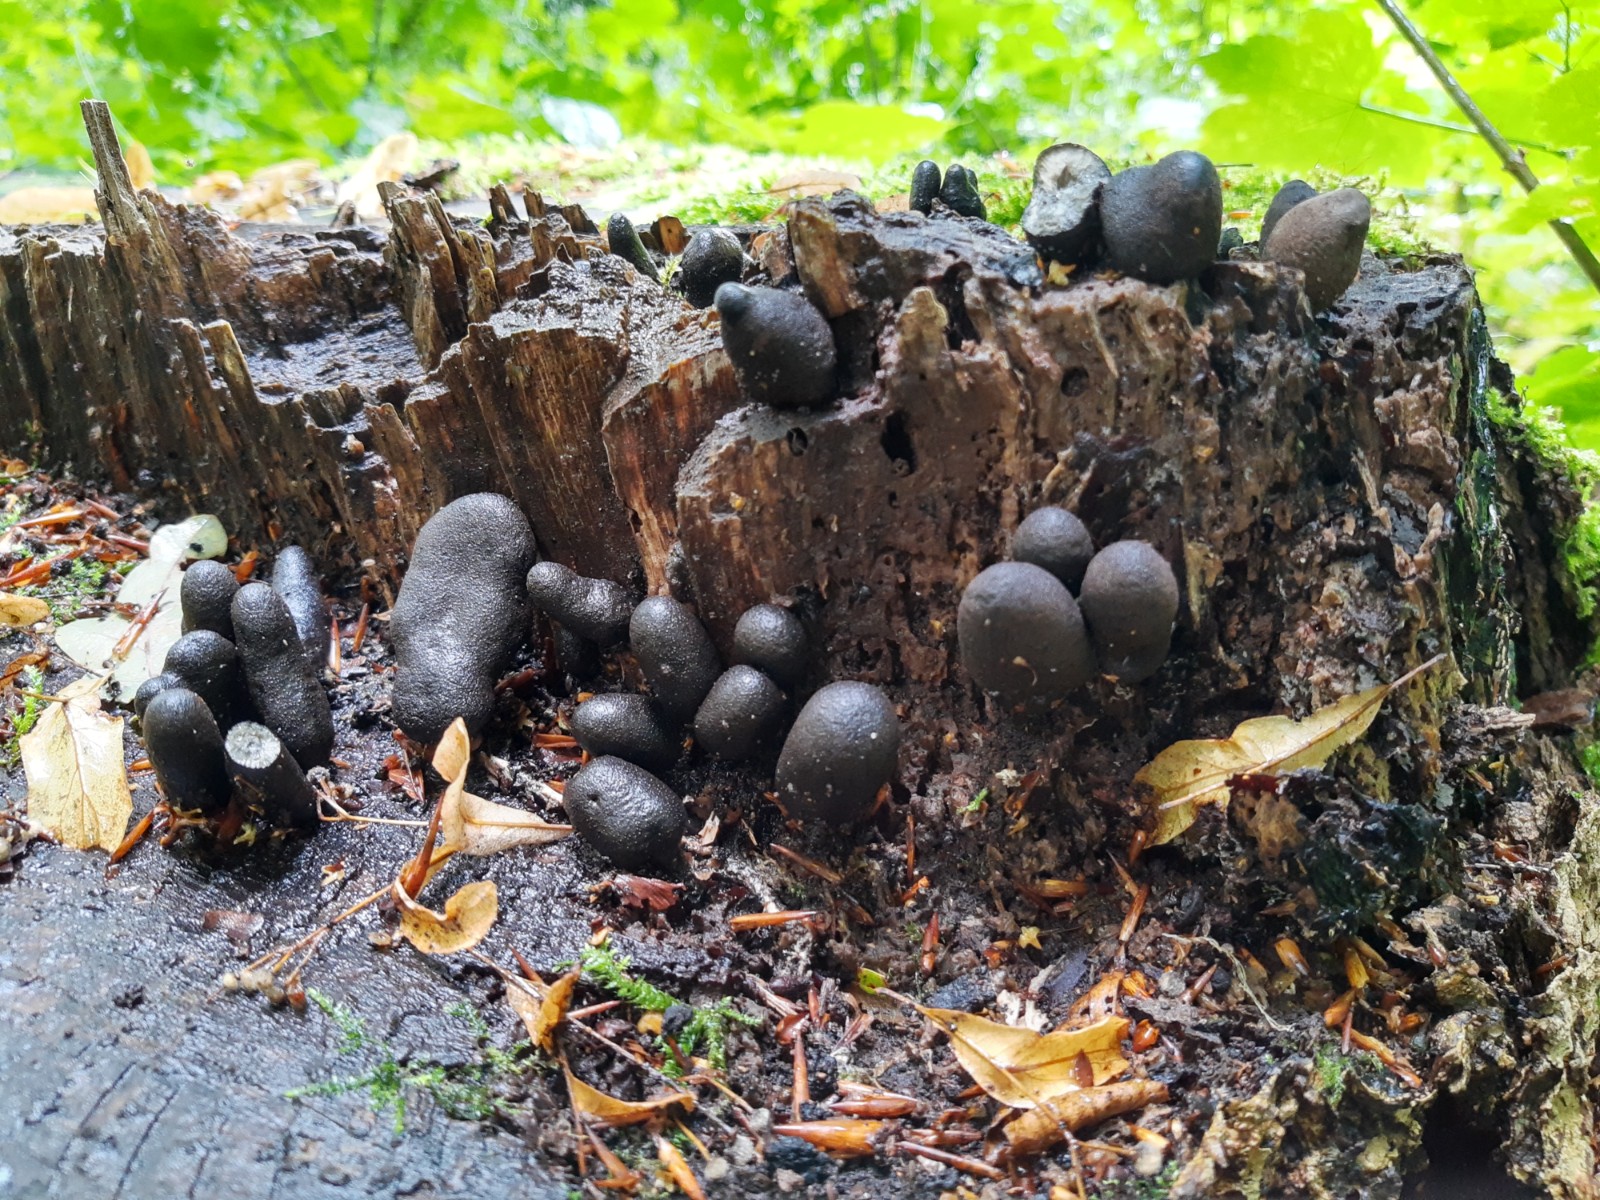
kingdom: Fungi
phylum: Ascomycota
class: Sordariomycetes
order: Xylariales
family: Xylariaceae
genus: Xylaria
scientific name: Xylaria polymorpha
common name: kølle-stødsvamp
